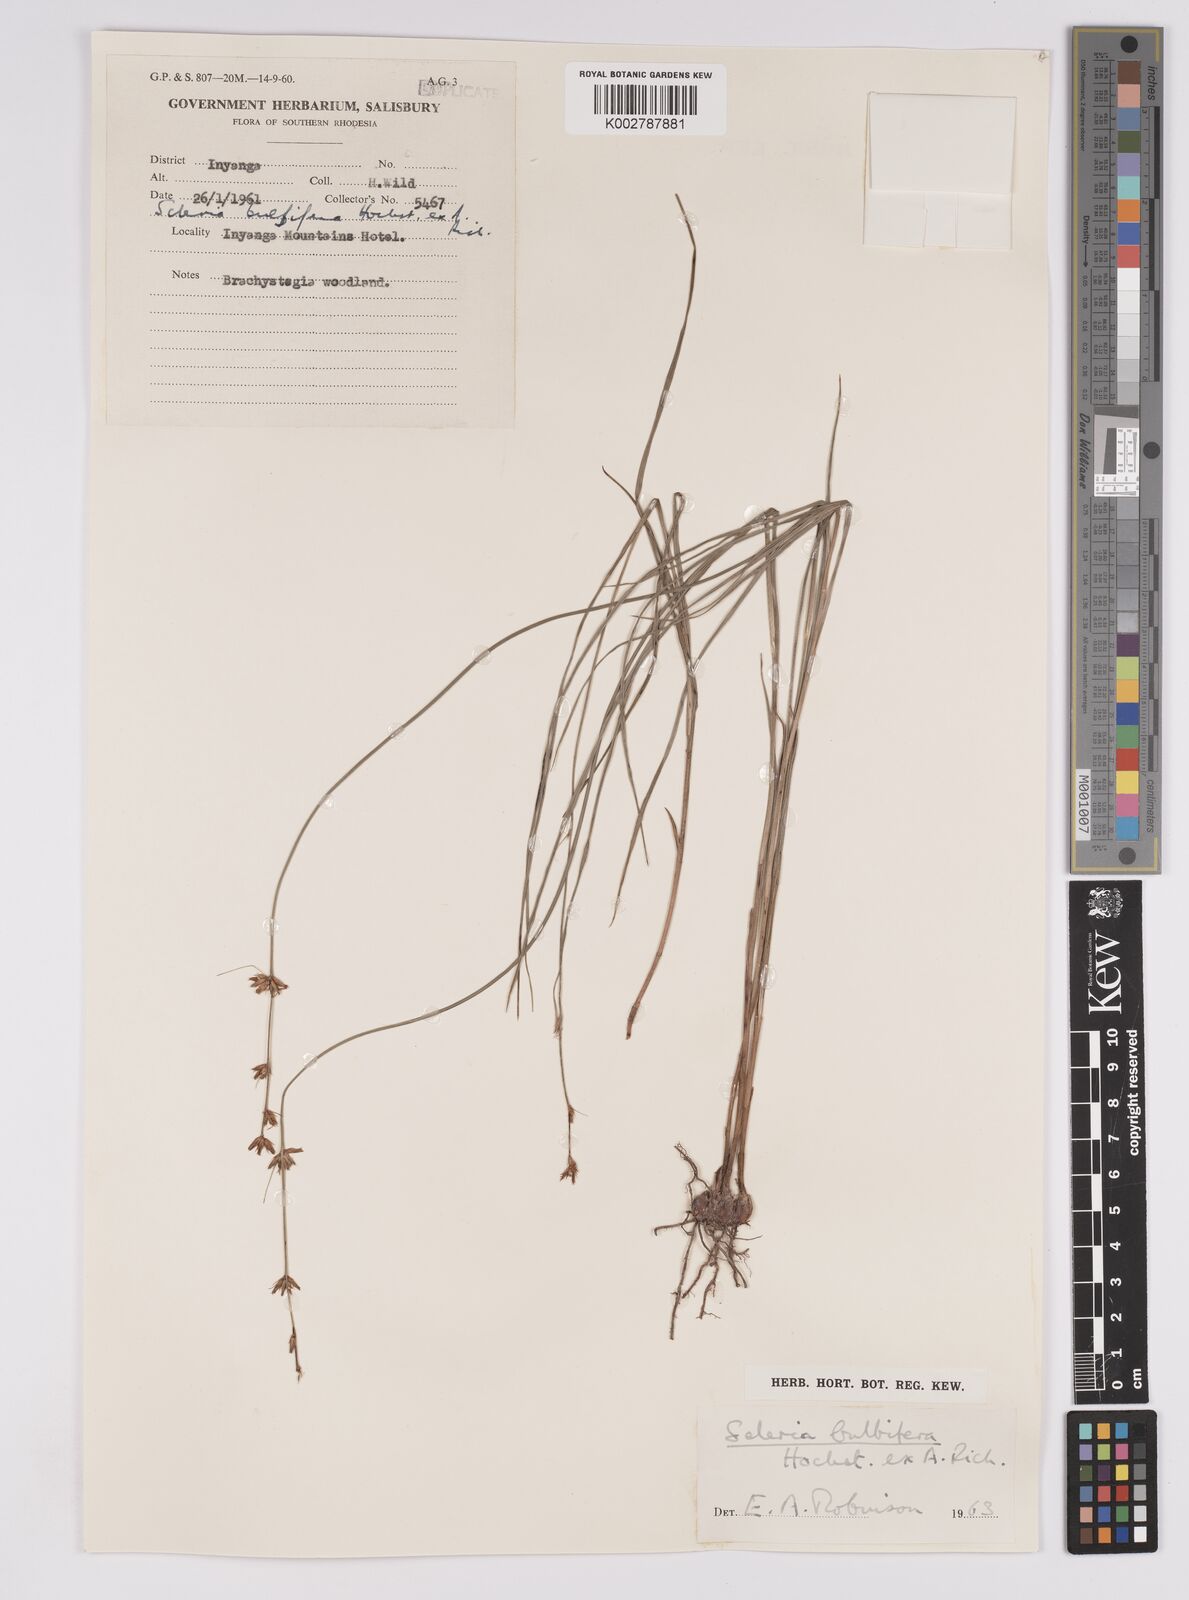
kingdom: Plantae
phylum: Tracheophyta
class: Liliopsida
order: Poales
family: Cyperaceae
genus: Scleria
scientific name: Scleria bulbifera
